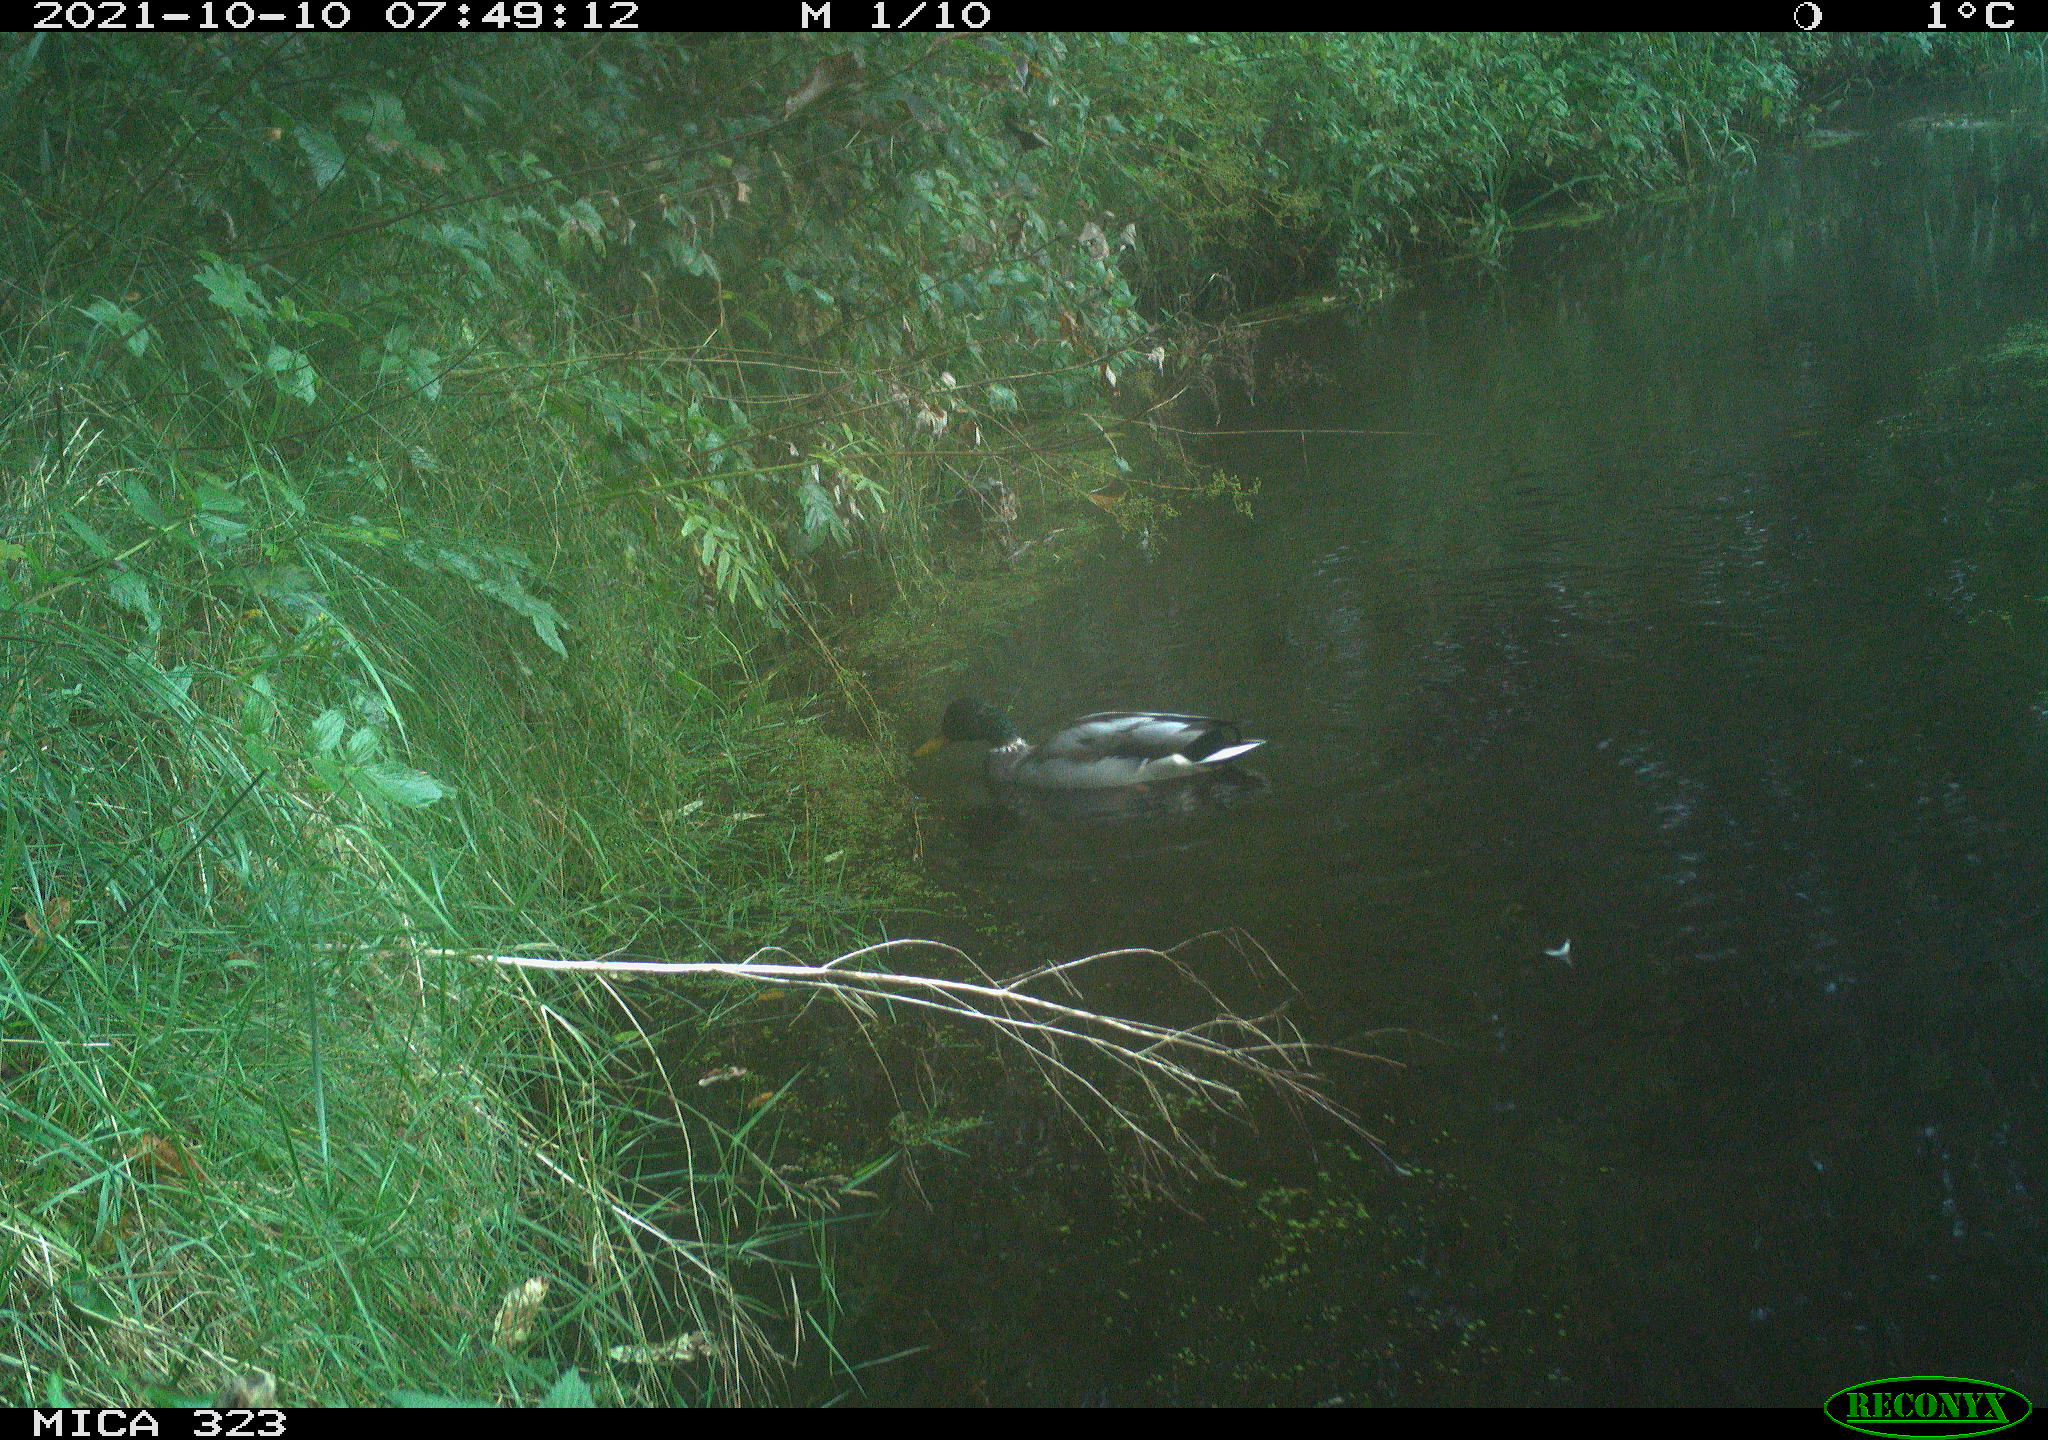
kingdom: Animalia
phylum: Chordata
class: Aves
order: Anseriformes
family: Anatidae
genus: Anas
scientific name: Anas platyrhynchos
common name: Mallard
